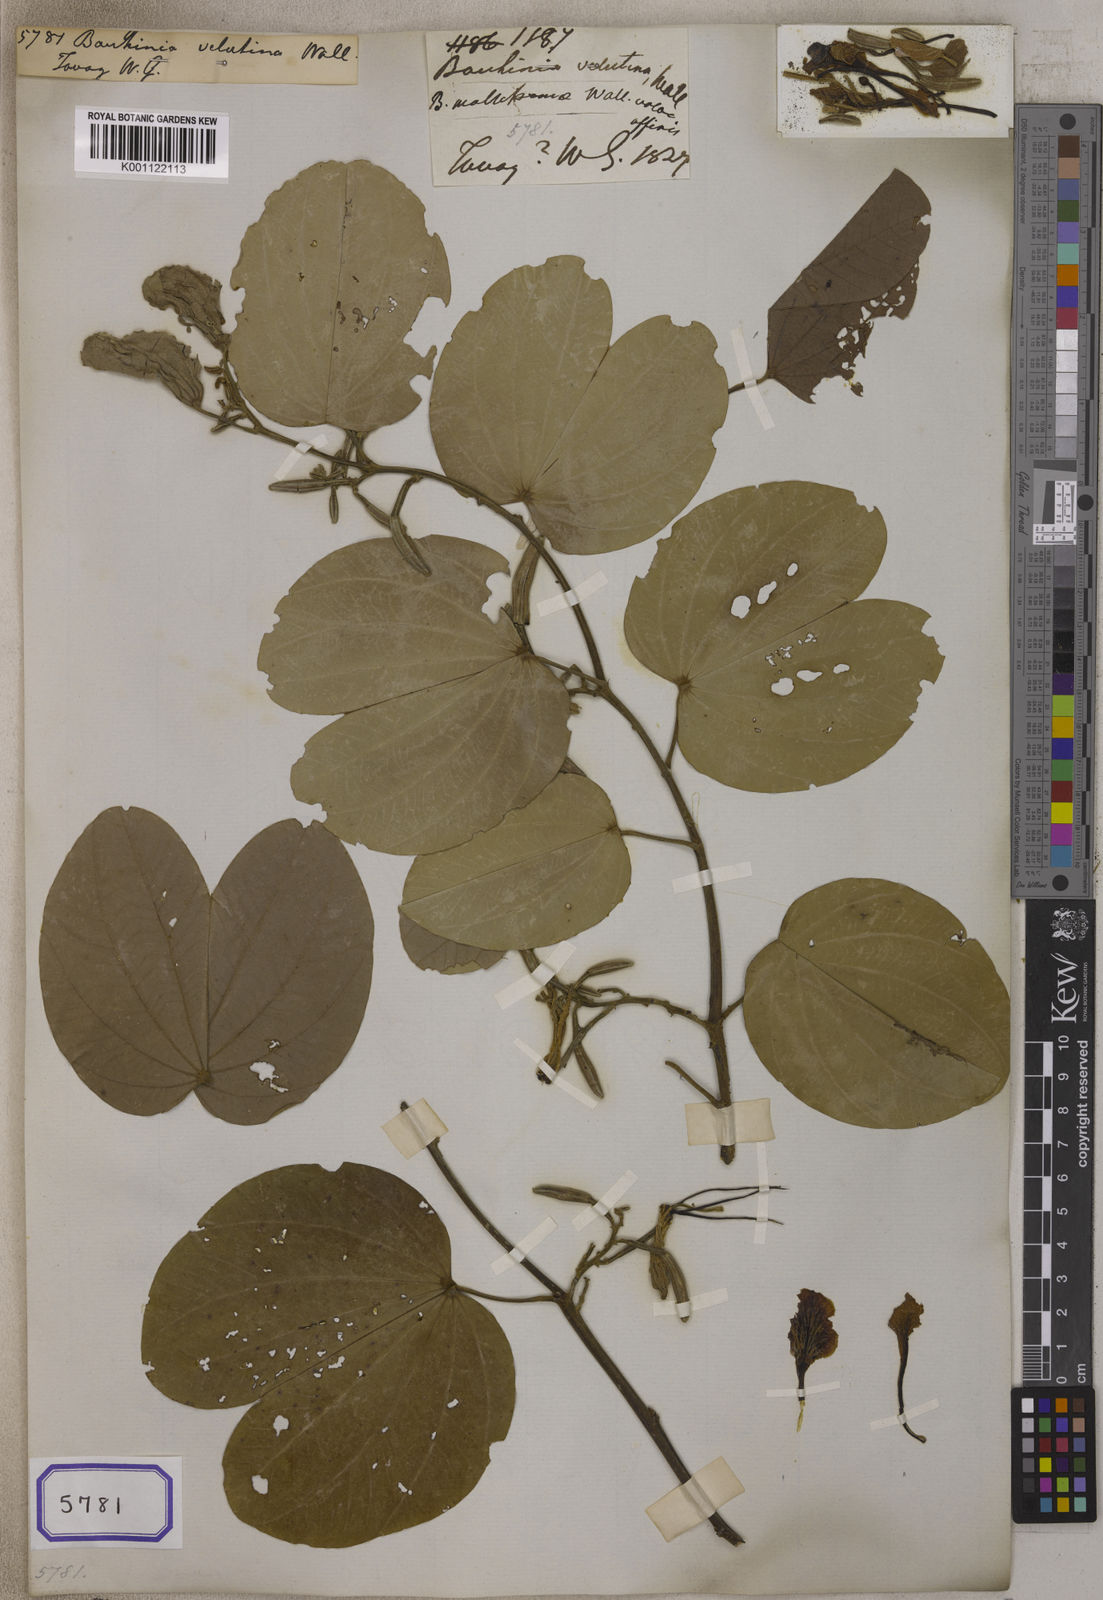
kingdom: Plantae
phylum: Tracheophyta
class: Magnoliopsida
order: Fabales
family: Fabaceae
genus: Bauhinia
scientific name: Bauhinia
